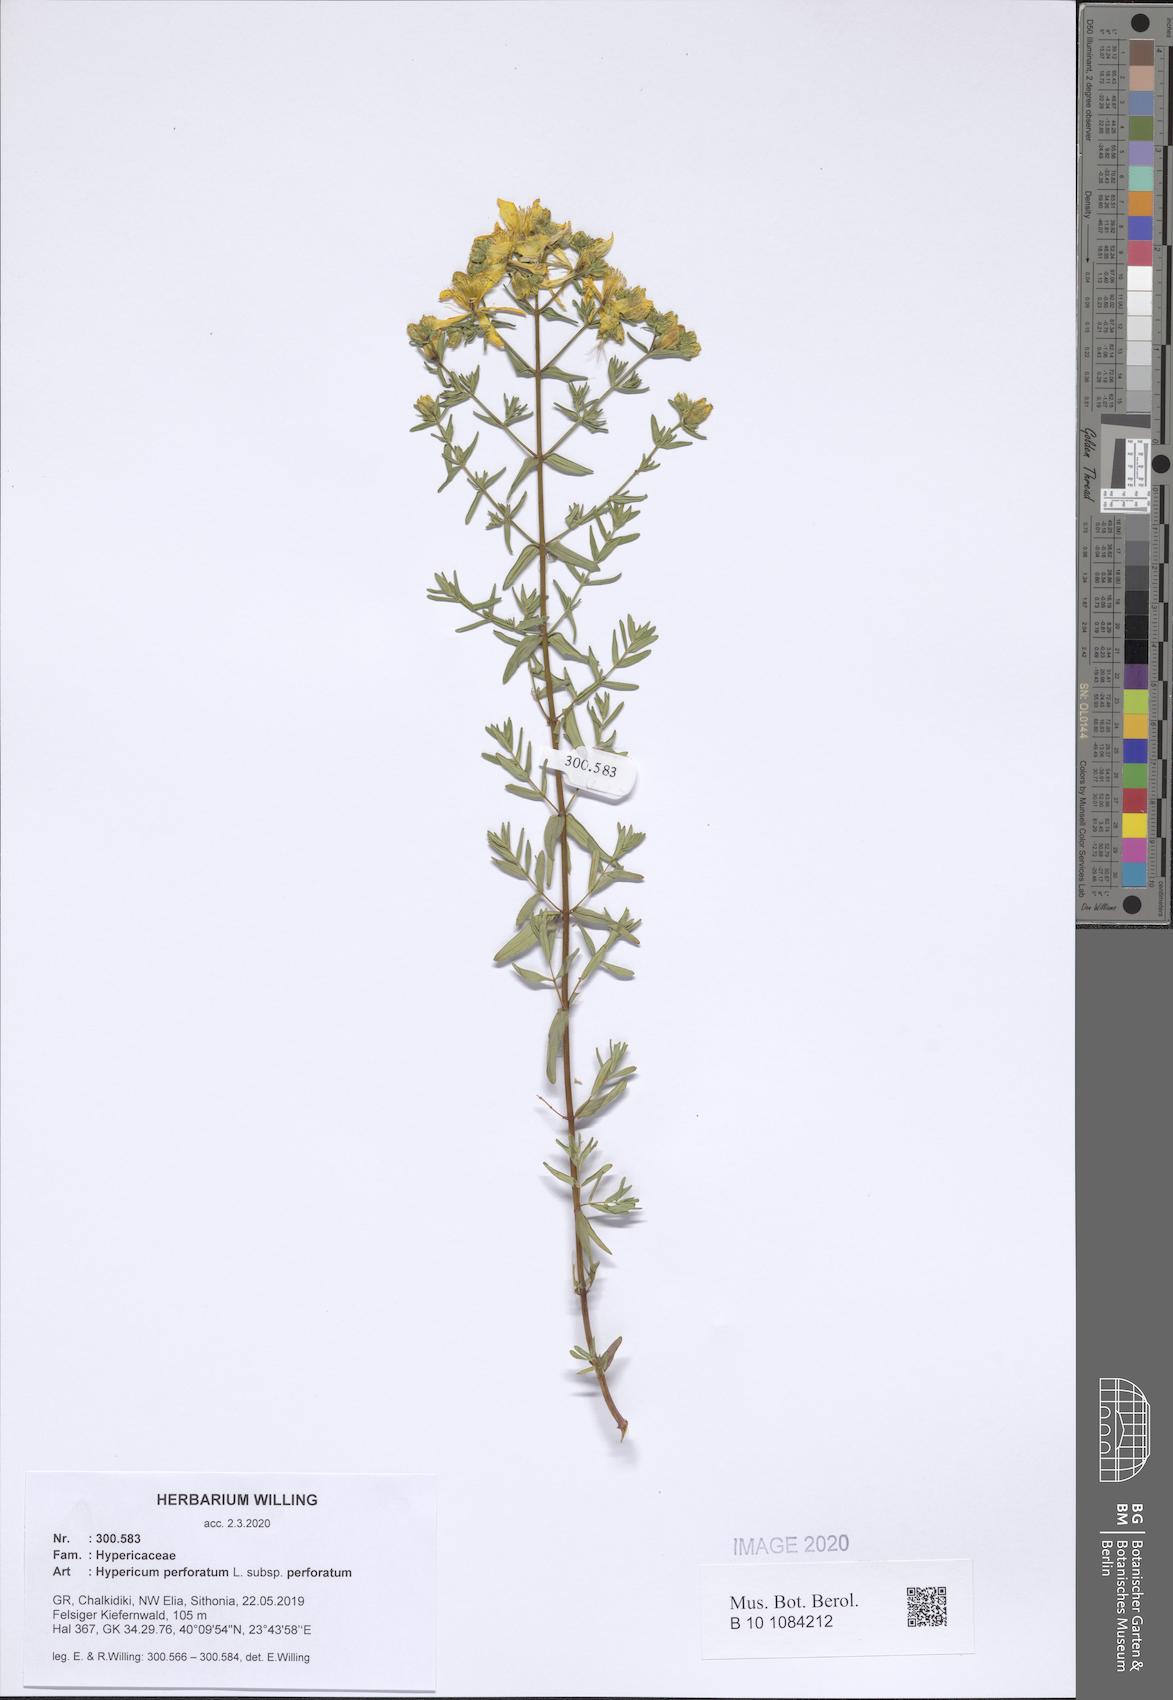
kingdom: Plantae
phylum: Tracheophyta
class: Magnoliopsida
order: Malpighiales
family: Hypericaceae
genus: Hypericum
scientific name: Hypericum perforatum
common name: Common st. johnswort
